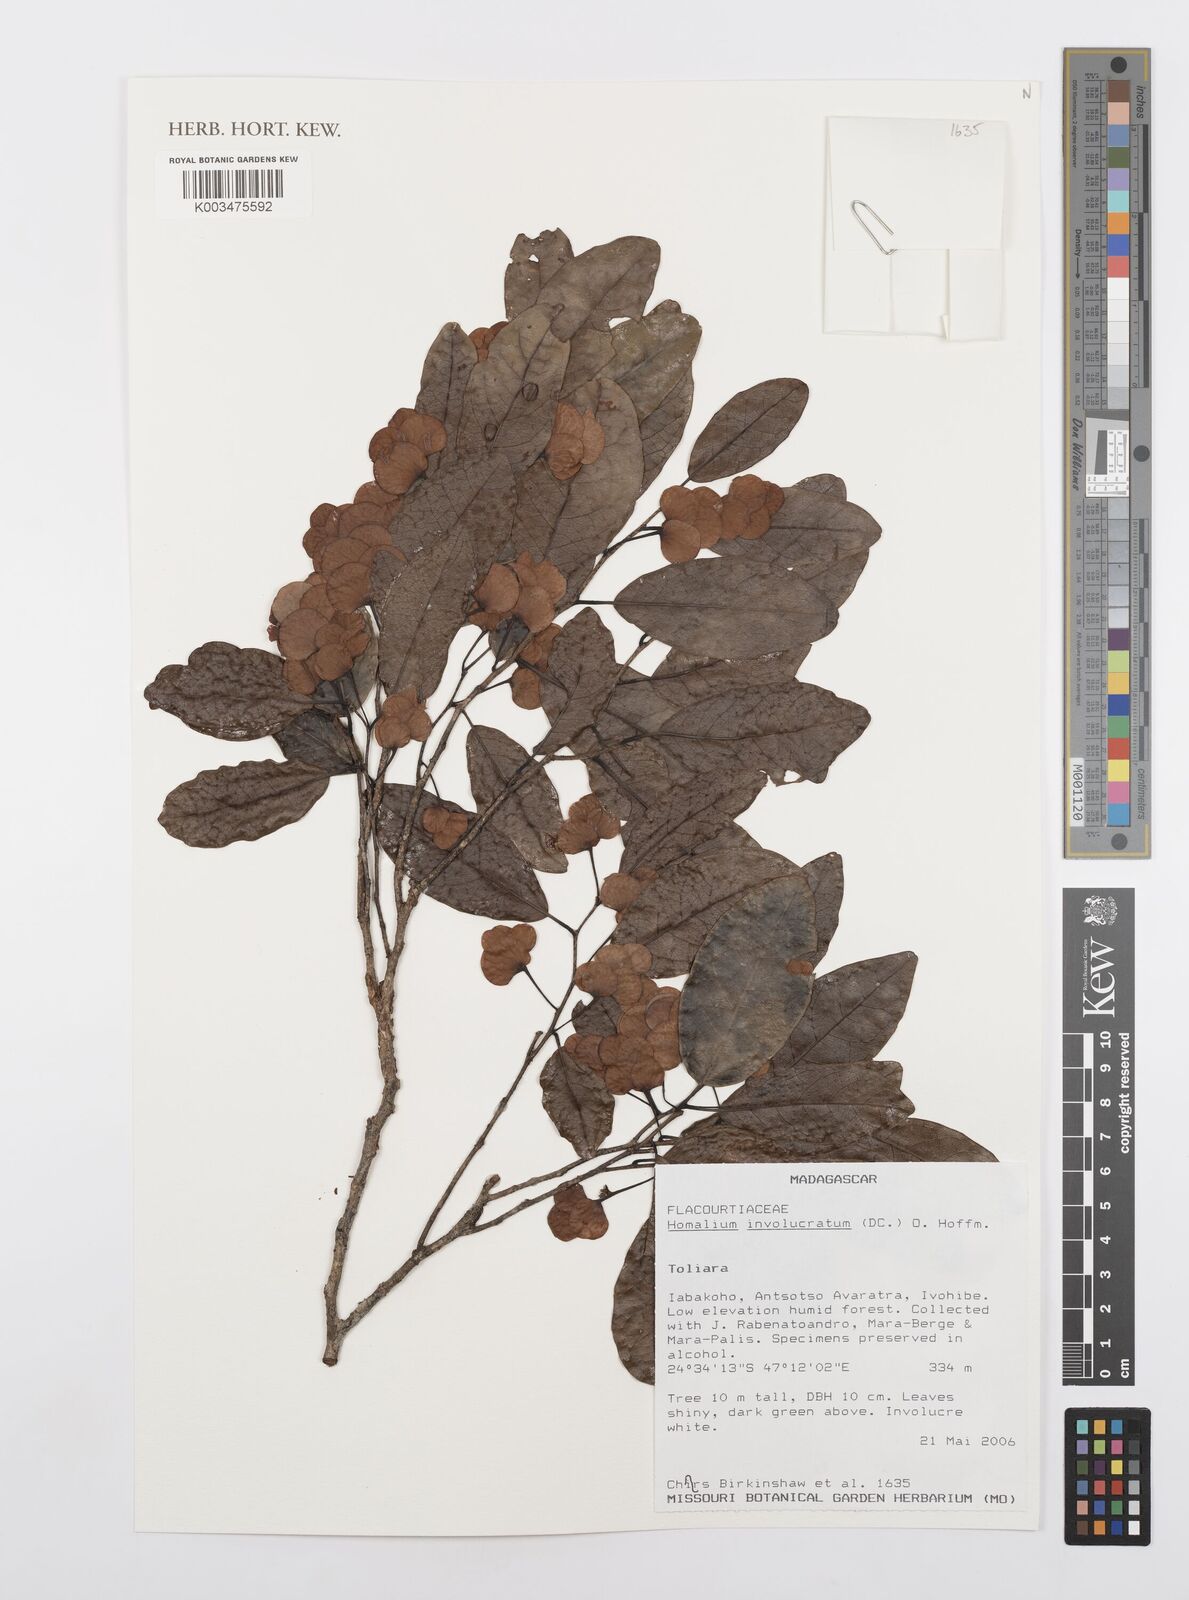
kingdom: Plantae
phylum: Tracheophyta
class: Magnoliopsida
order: Malpighiales
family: Salicaceae
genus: Homalium
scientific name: Homalium involucratum
